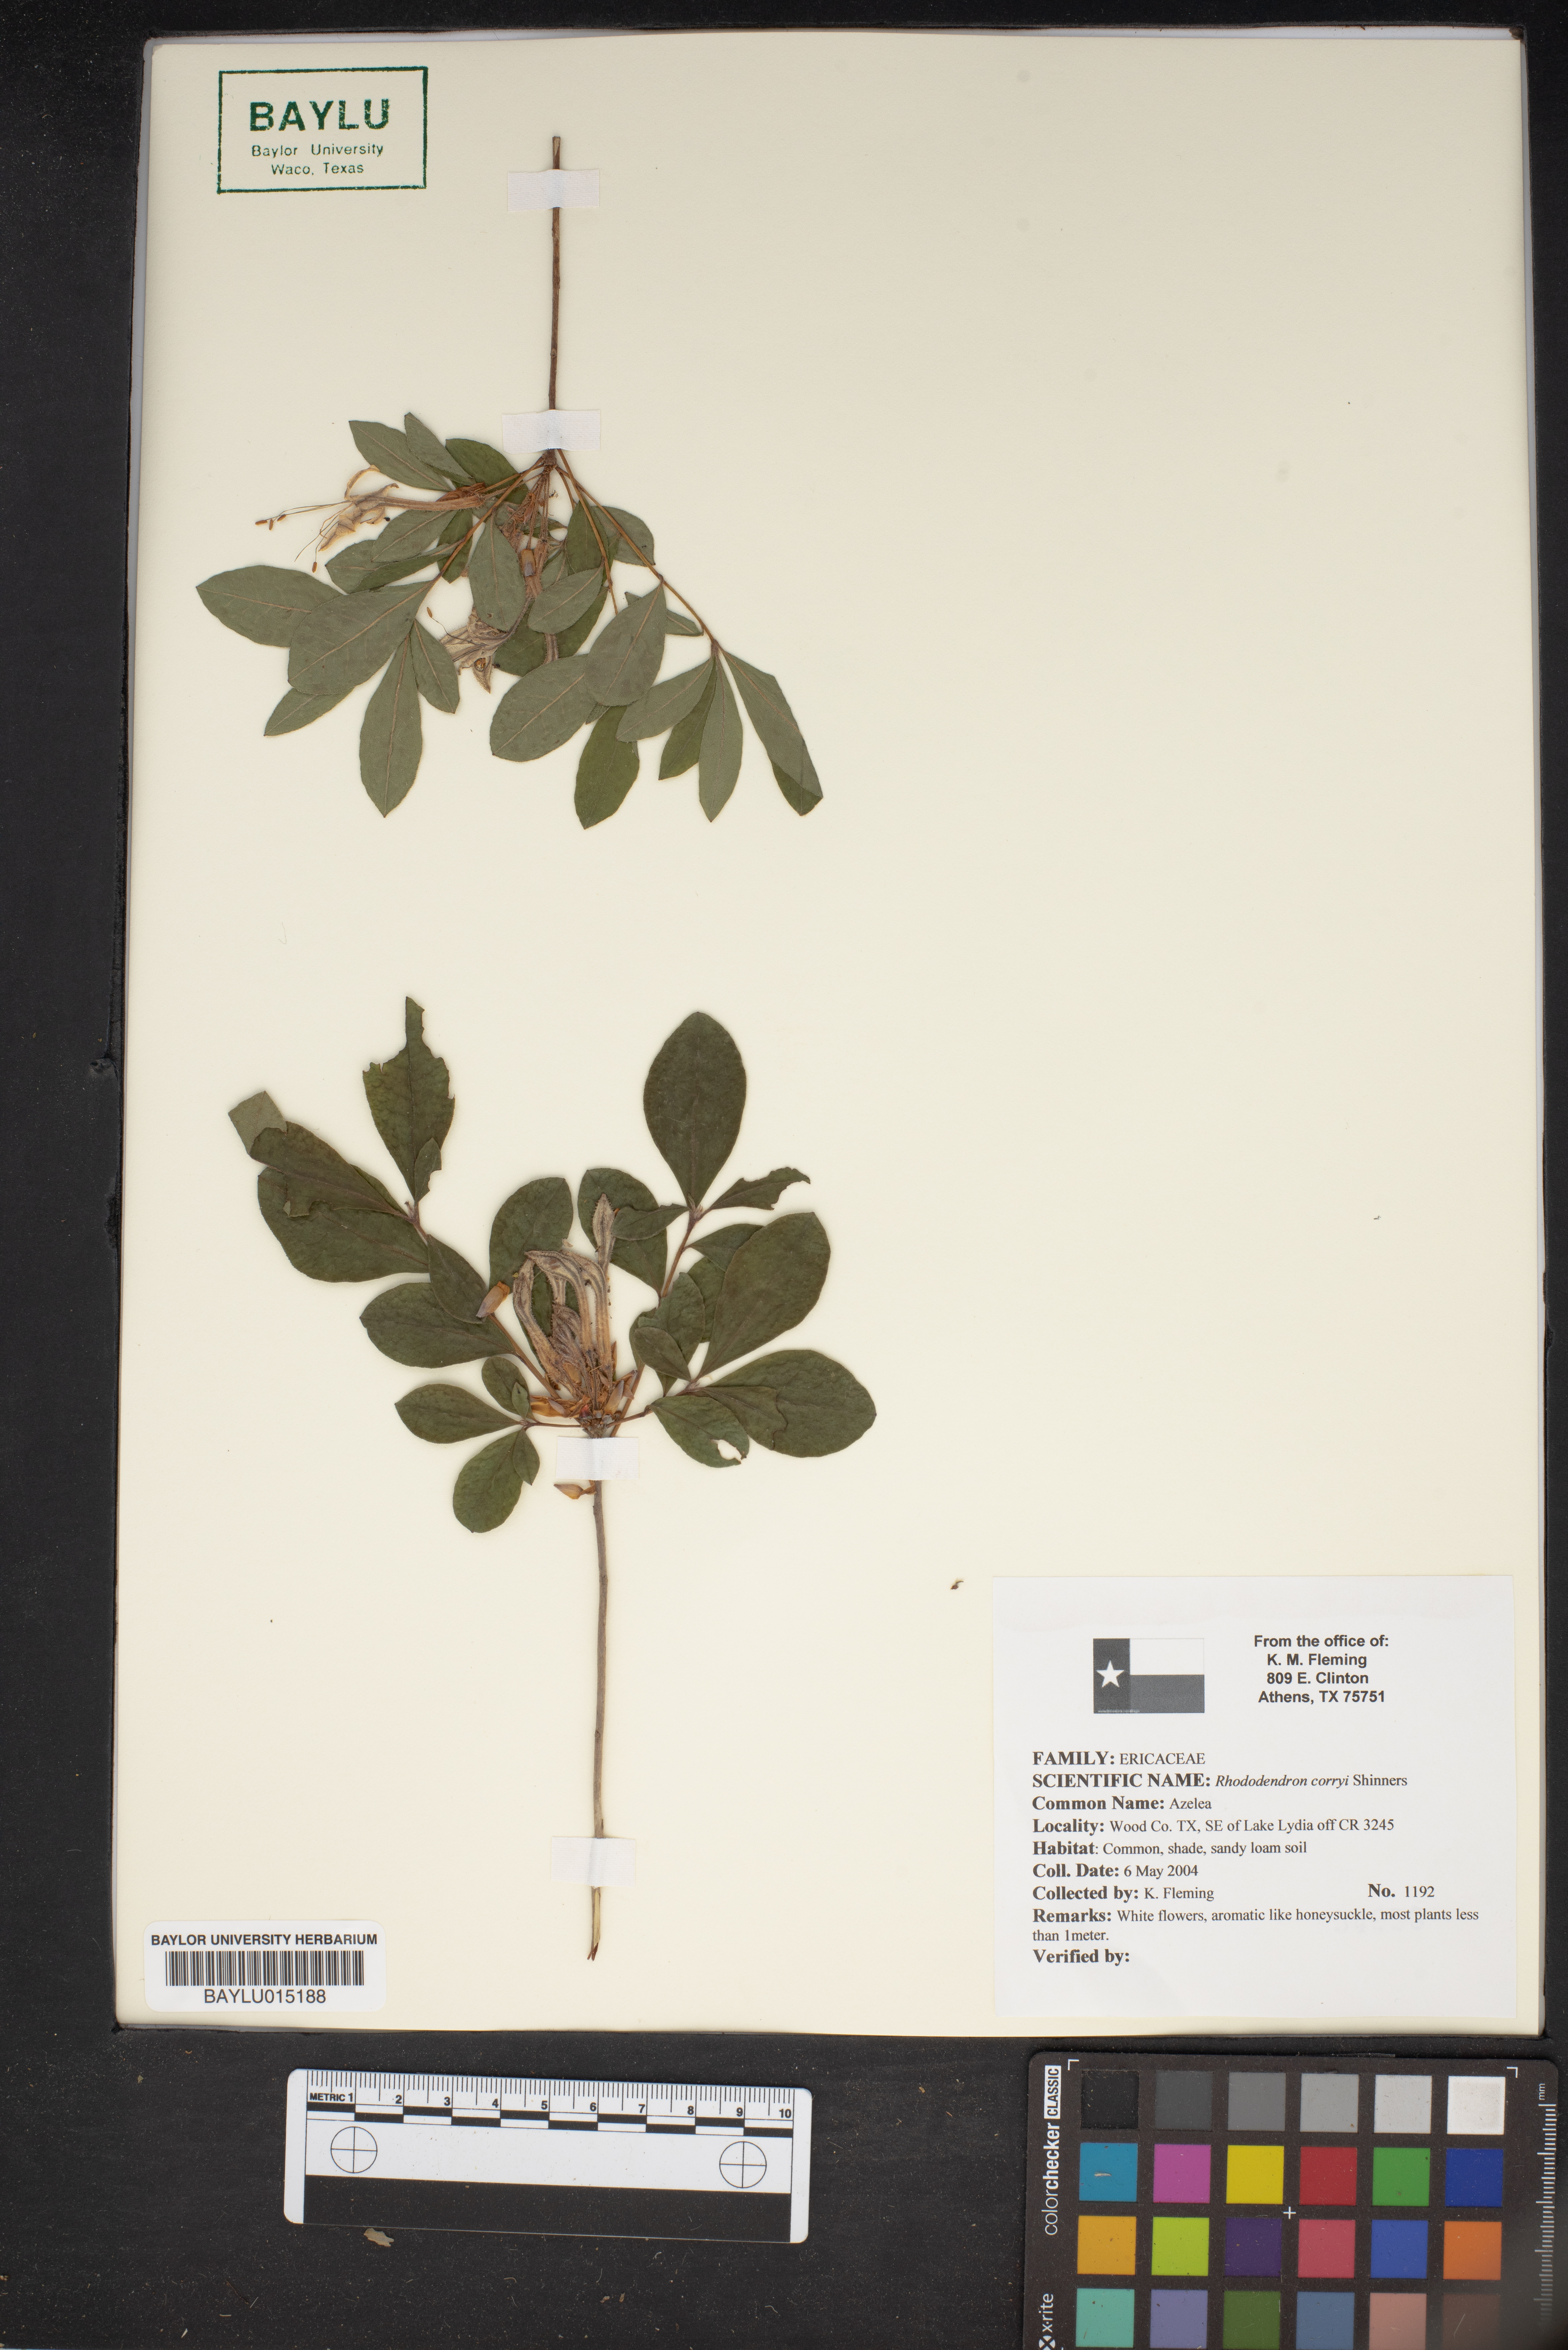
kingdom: Plantae
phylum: Tracheophyta
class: Magnoliopsida
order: Ericales
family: Ericaceae
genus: Rhododendron
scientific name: Rhododendron viscosum
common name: Clammy azalea
